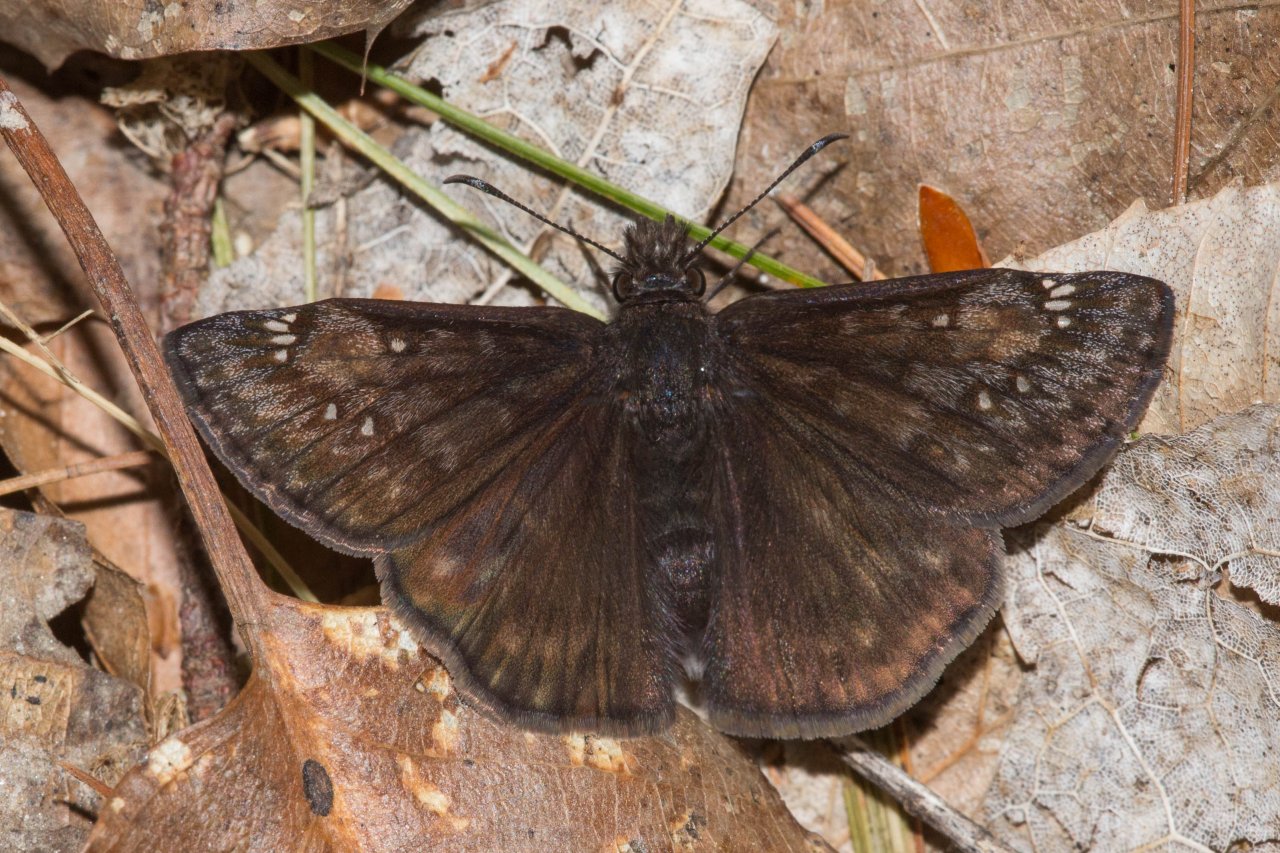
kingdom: Animalia
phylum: Arthropoda
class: Insecta
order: Lepidoptera
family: Hesperiidae
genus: Gesta
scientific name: Gesta
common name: Juvenal's Duskywing
